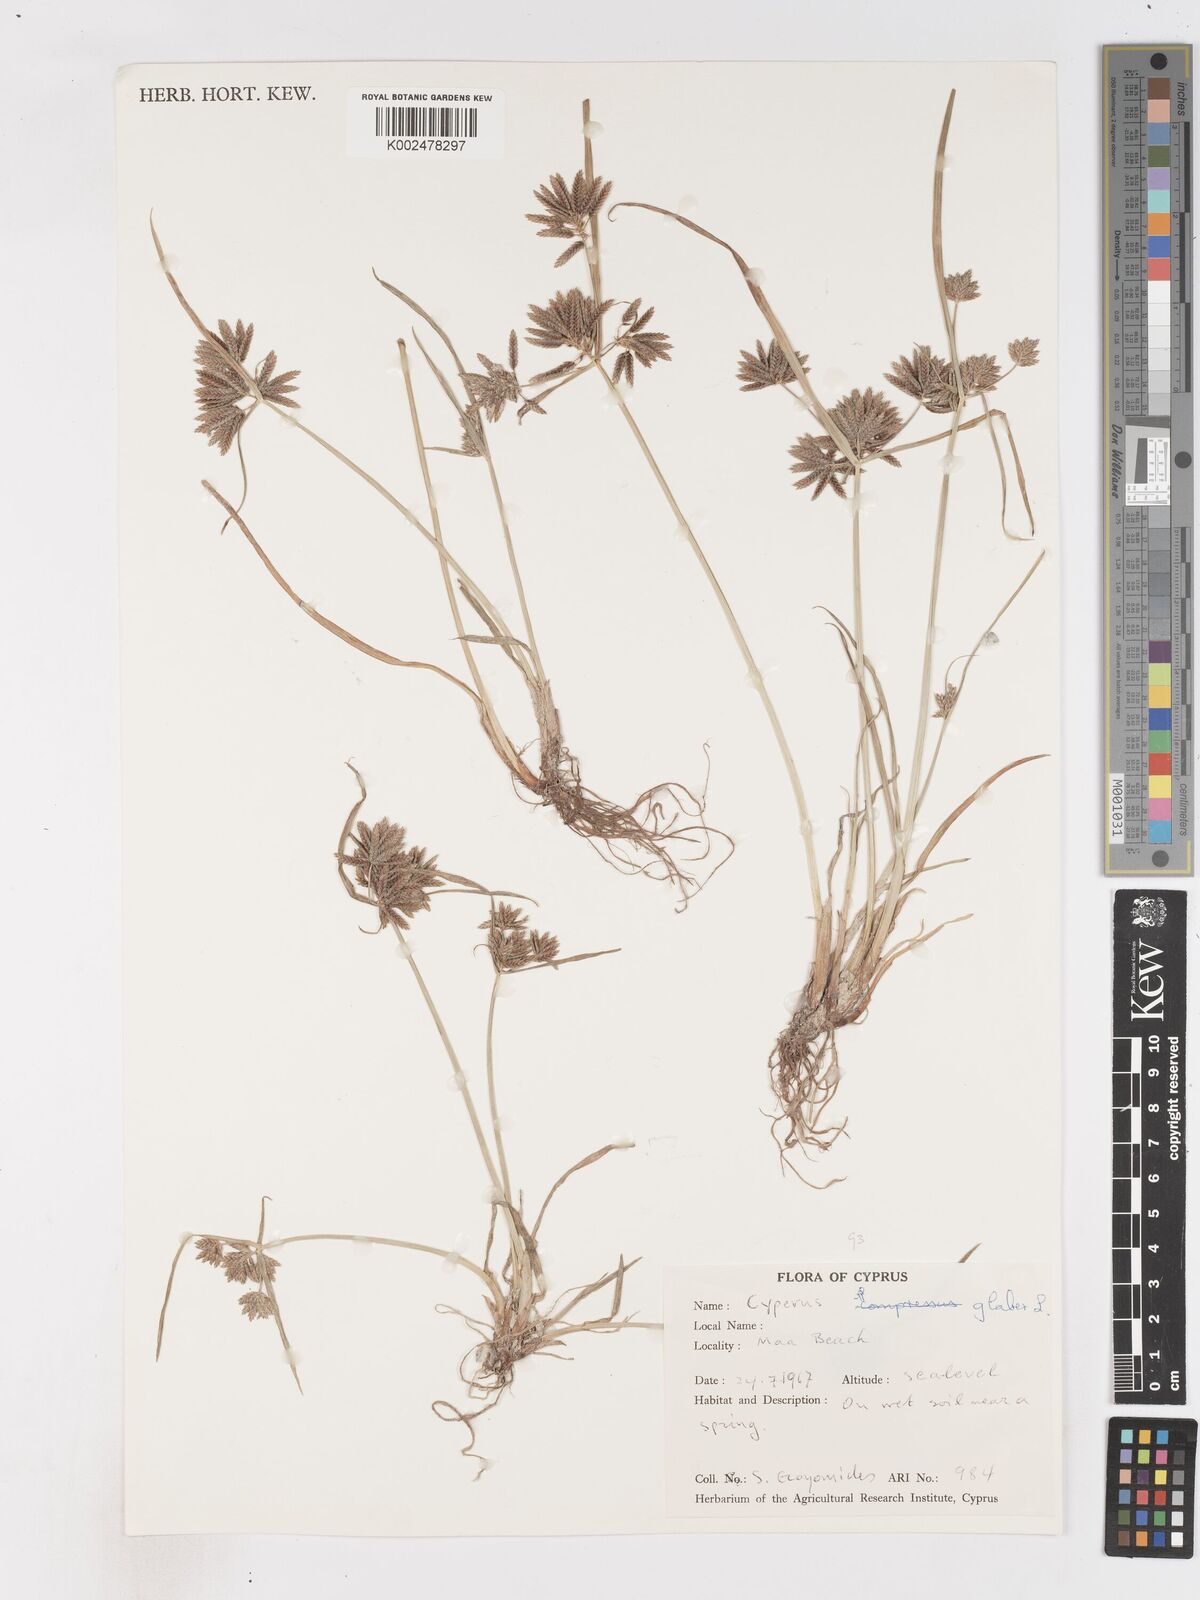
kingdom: Plantae
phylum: Tracheophyta
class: Liliopsida
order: Poales
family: Cyperaceae
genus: Cyperus
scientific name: Cyperus glaber
